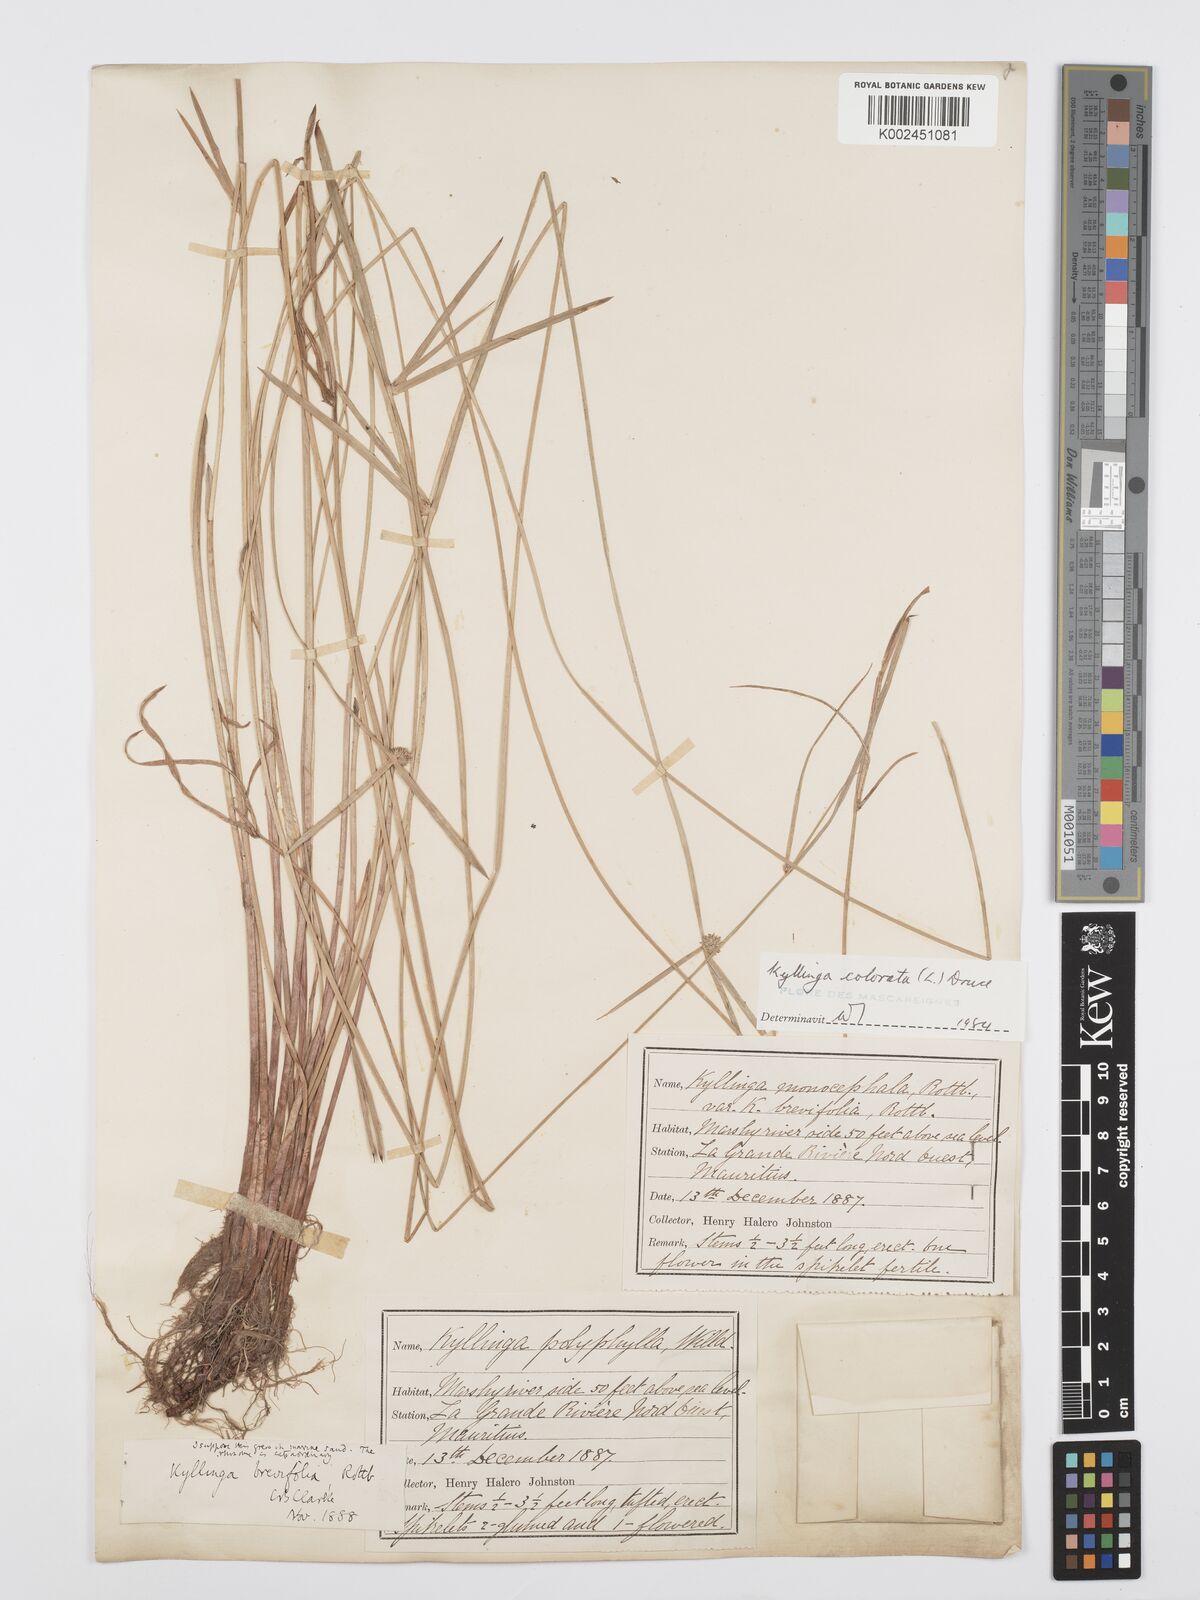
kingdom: Plantae
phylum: Tracheophyta
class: Liliopsida
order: Poales
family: Cyperaceae
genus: Cyperus
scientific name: Cyperus brevifolius
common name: Globe kyllinga
